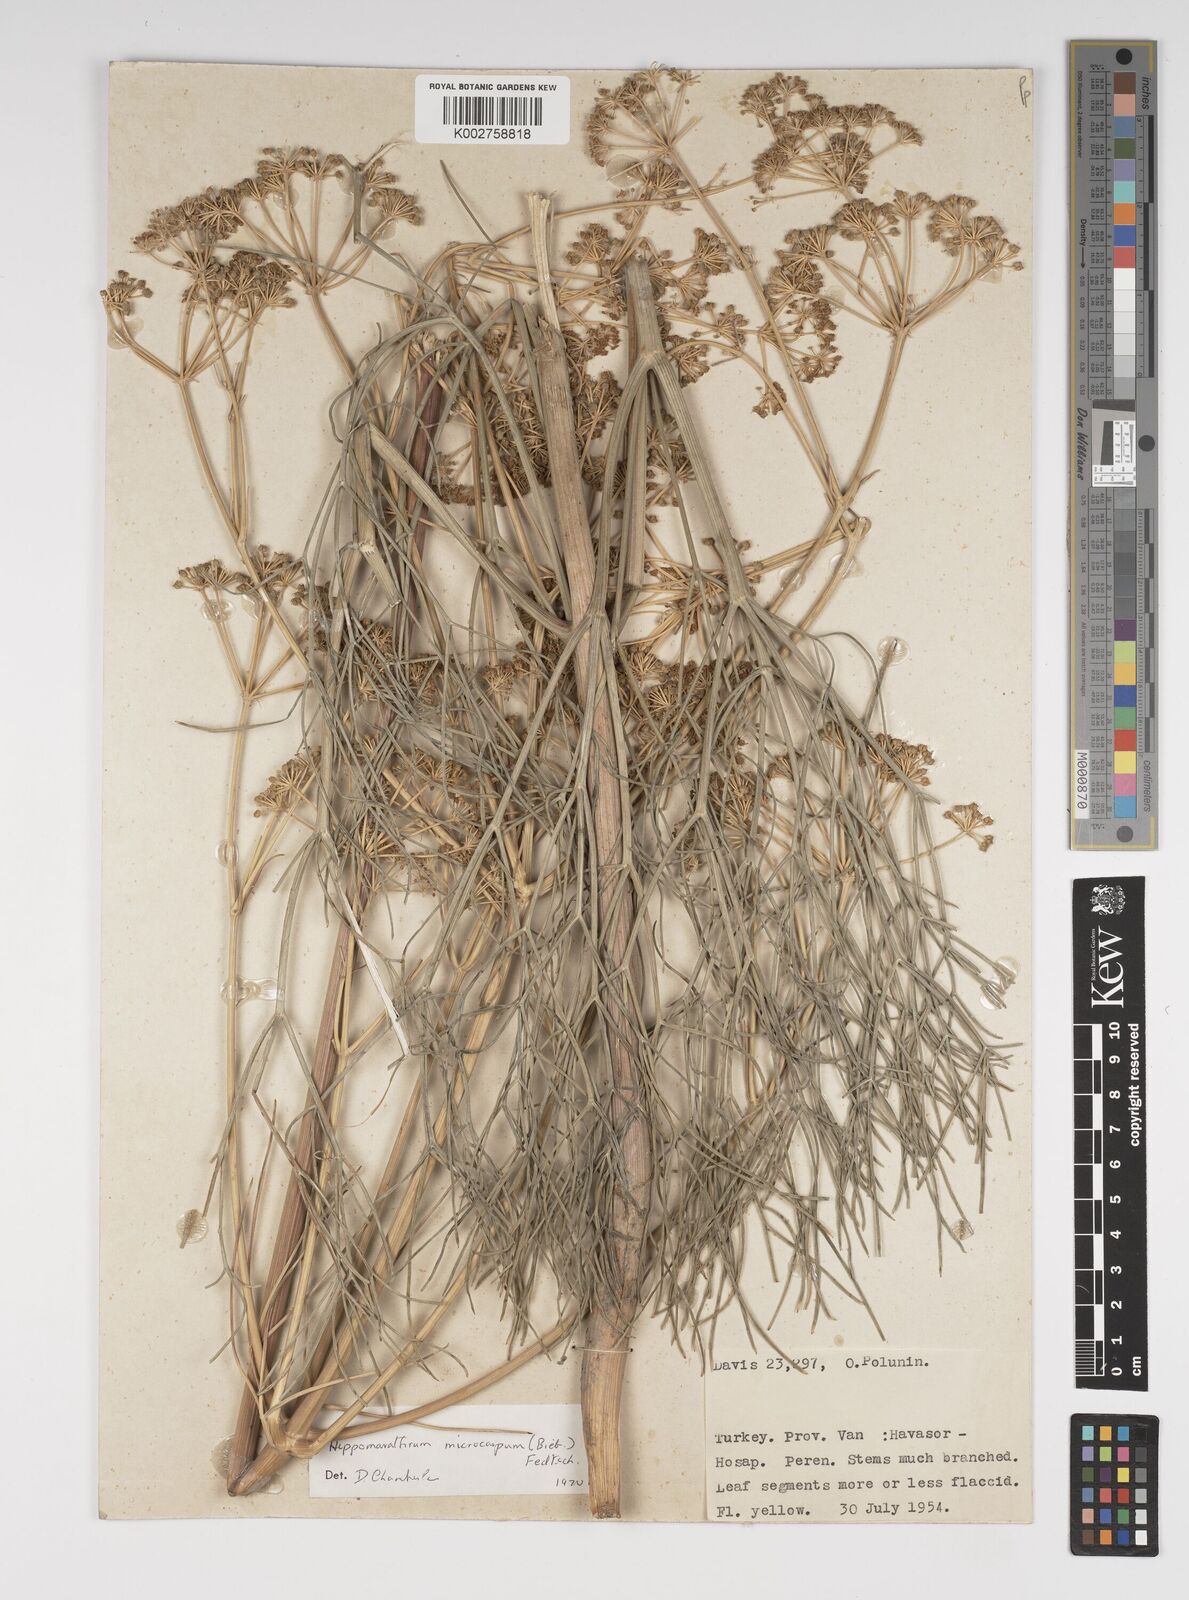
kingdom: Plantae
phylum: Tracheophyta
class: Magnoliopsida
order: Apiales
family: Apiaceae
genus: Bilacunaria
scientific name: Bilacunaria microcarpa
